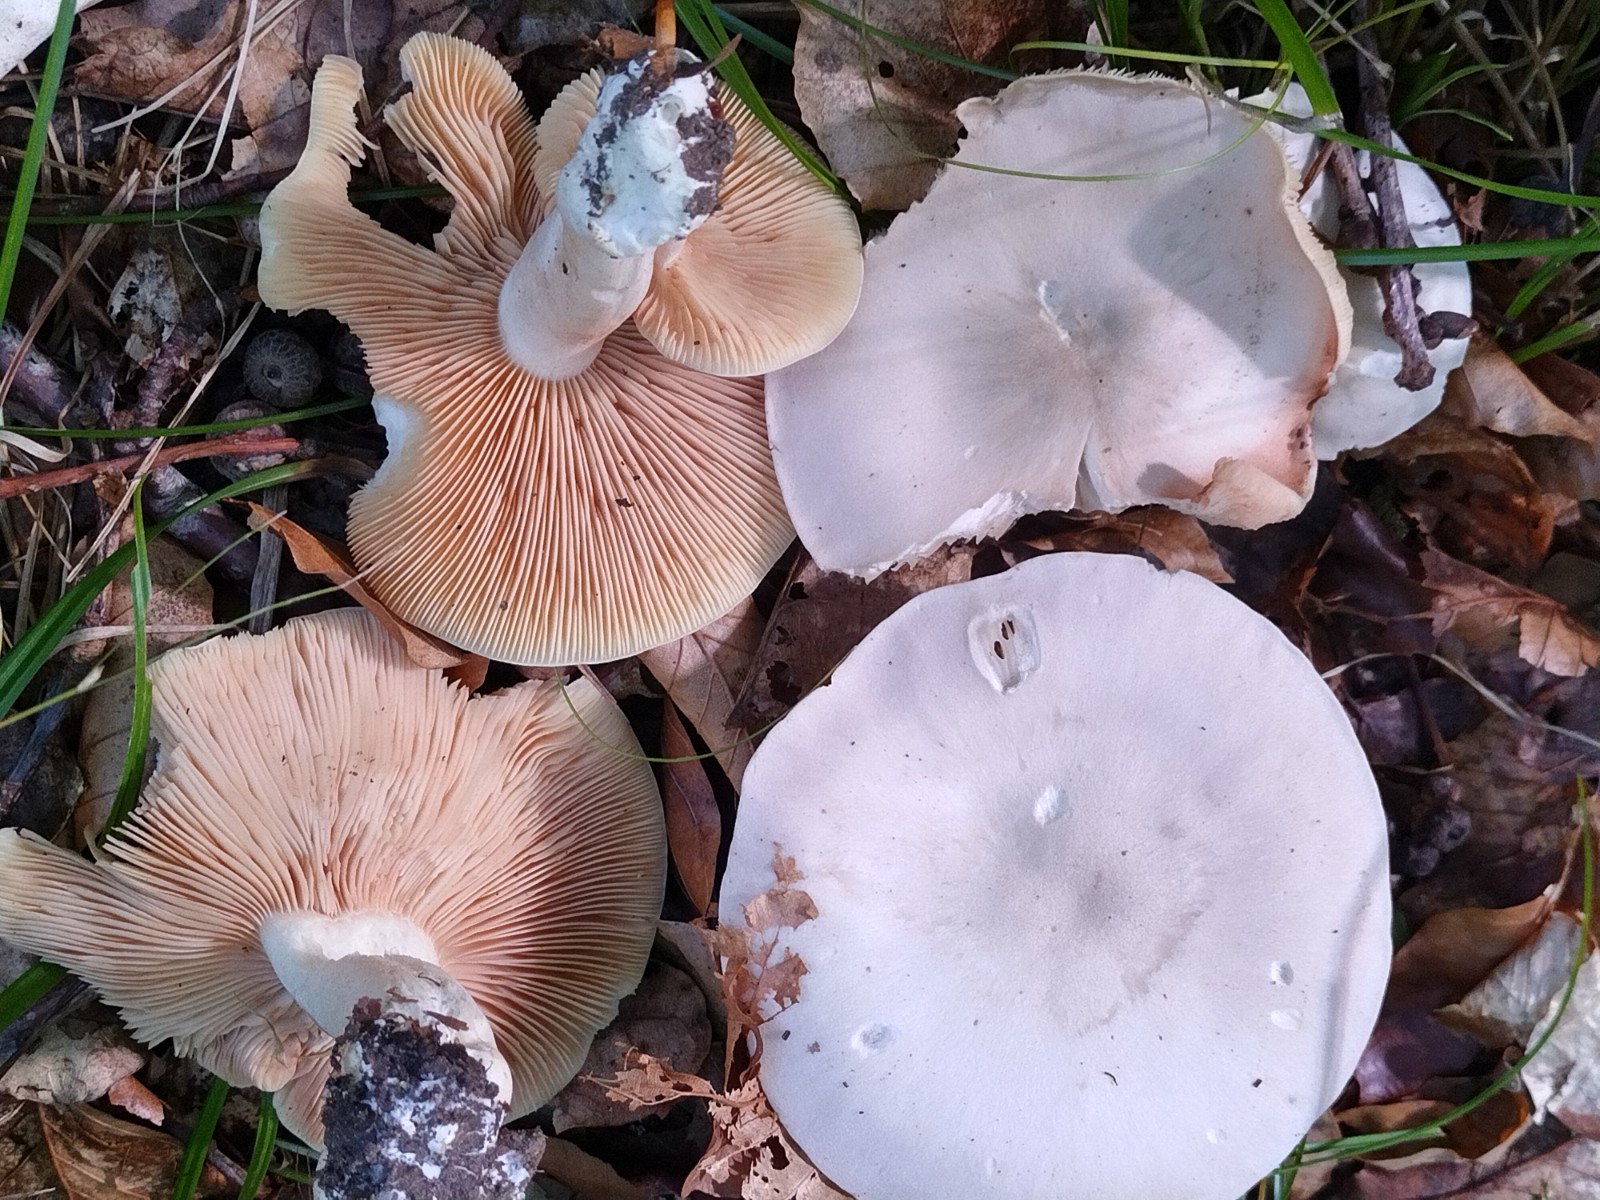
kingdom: Fungi
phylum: Basidiomycota
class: Agaricomycetes
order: Agaricales
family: Entolomataceae
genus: Entoloma
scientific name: Entoloma sinuatum
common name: giftig rødblad
